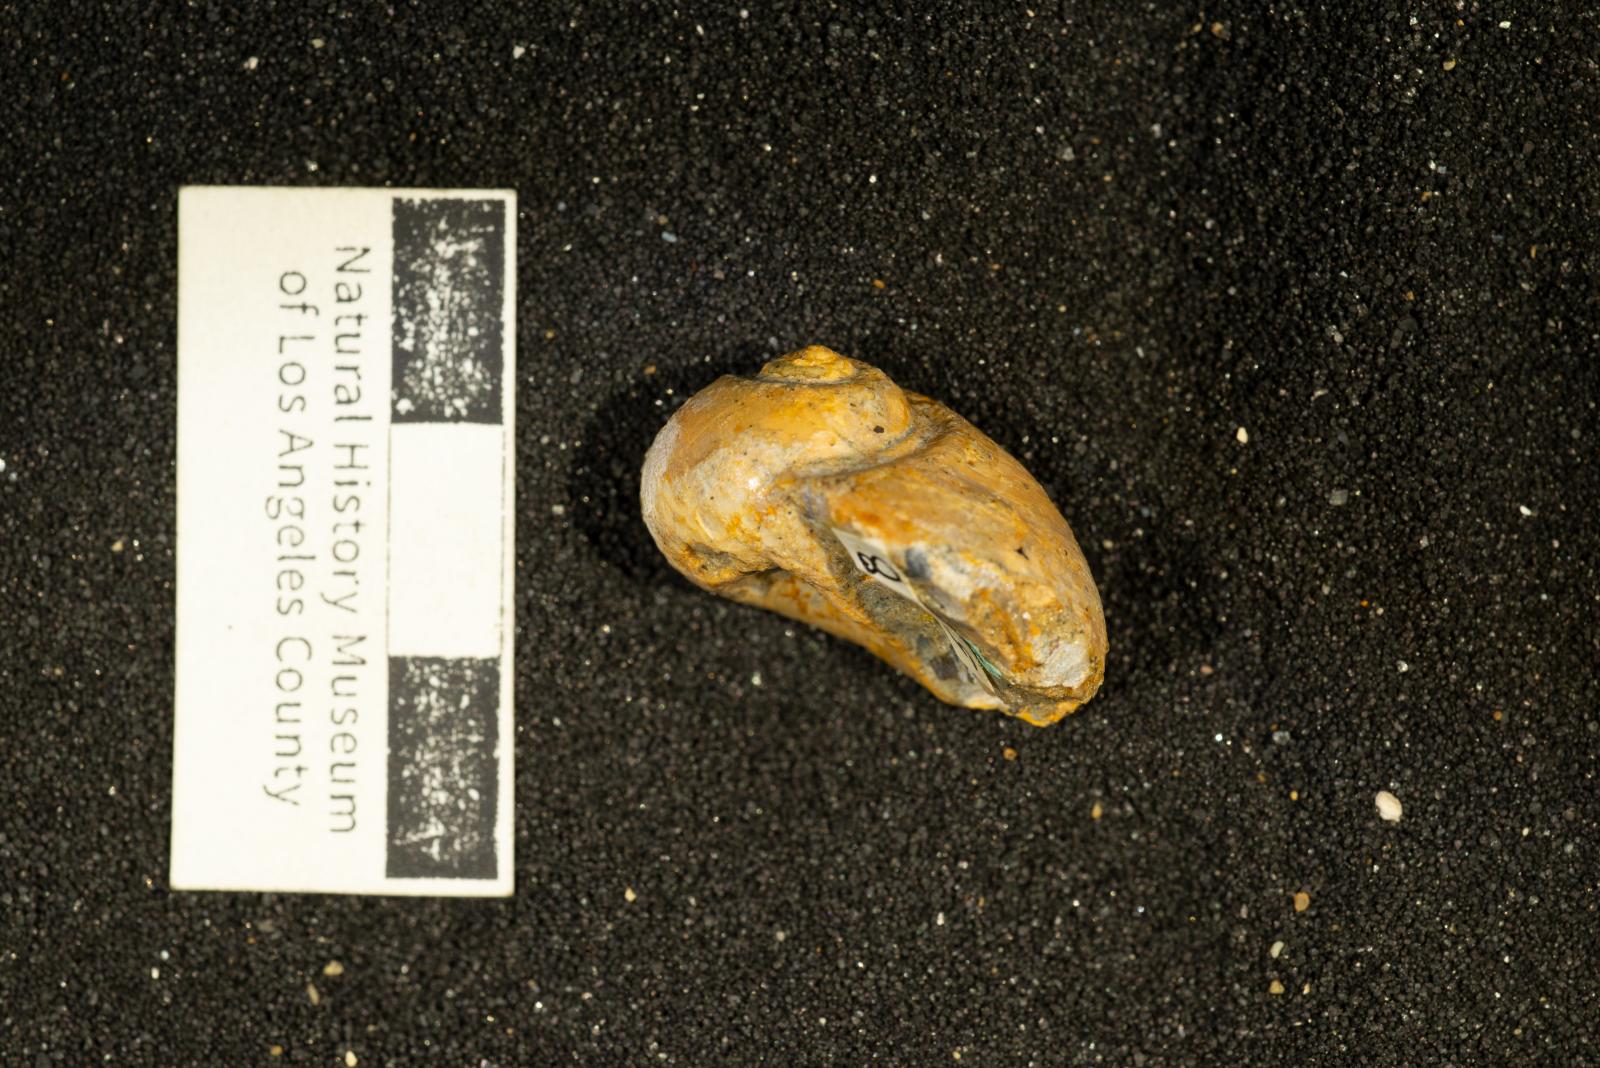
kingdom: Animalia
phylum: Mollusca
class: Gastropoda
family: Gyrodidae
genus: Gyrodes
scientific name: Gyrodes expansus
